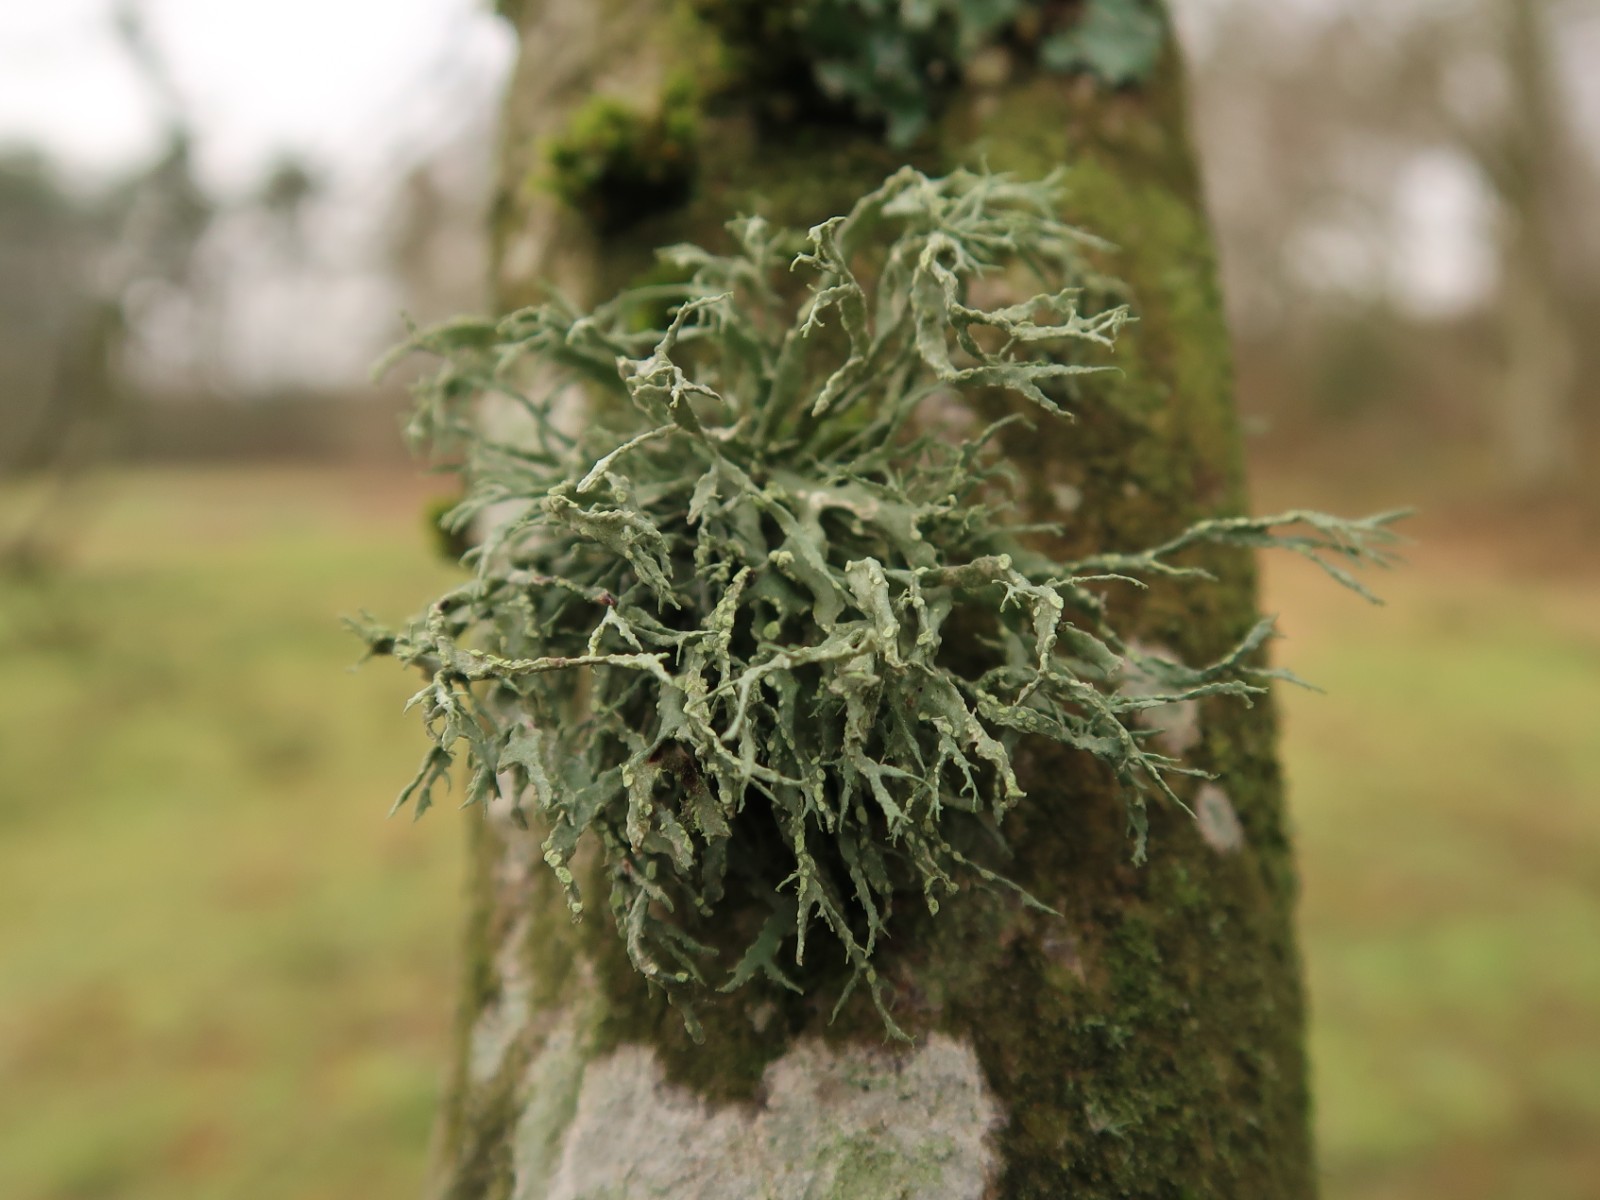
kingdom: Fungi
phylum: Ascomycota
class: Lecanoromycetes
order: Lecanorales
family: Ramalinaceae
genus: Ramalina
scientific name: Ramalina farinacea
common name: melet grenlav
